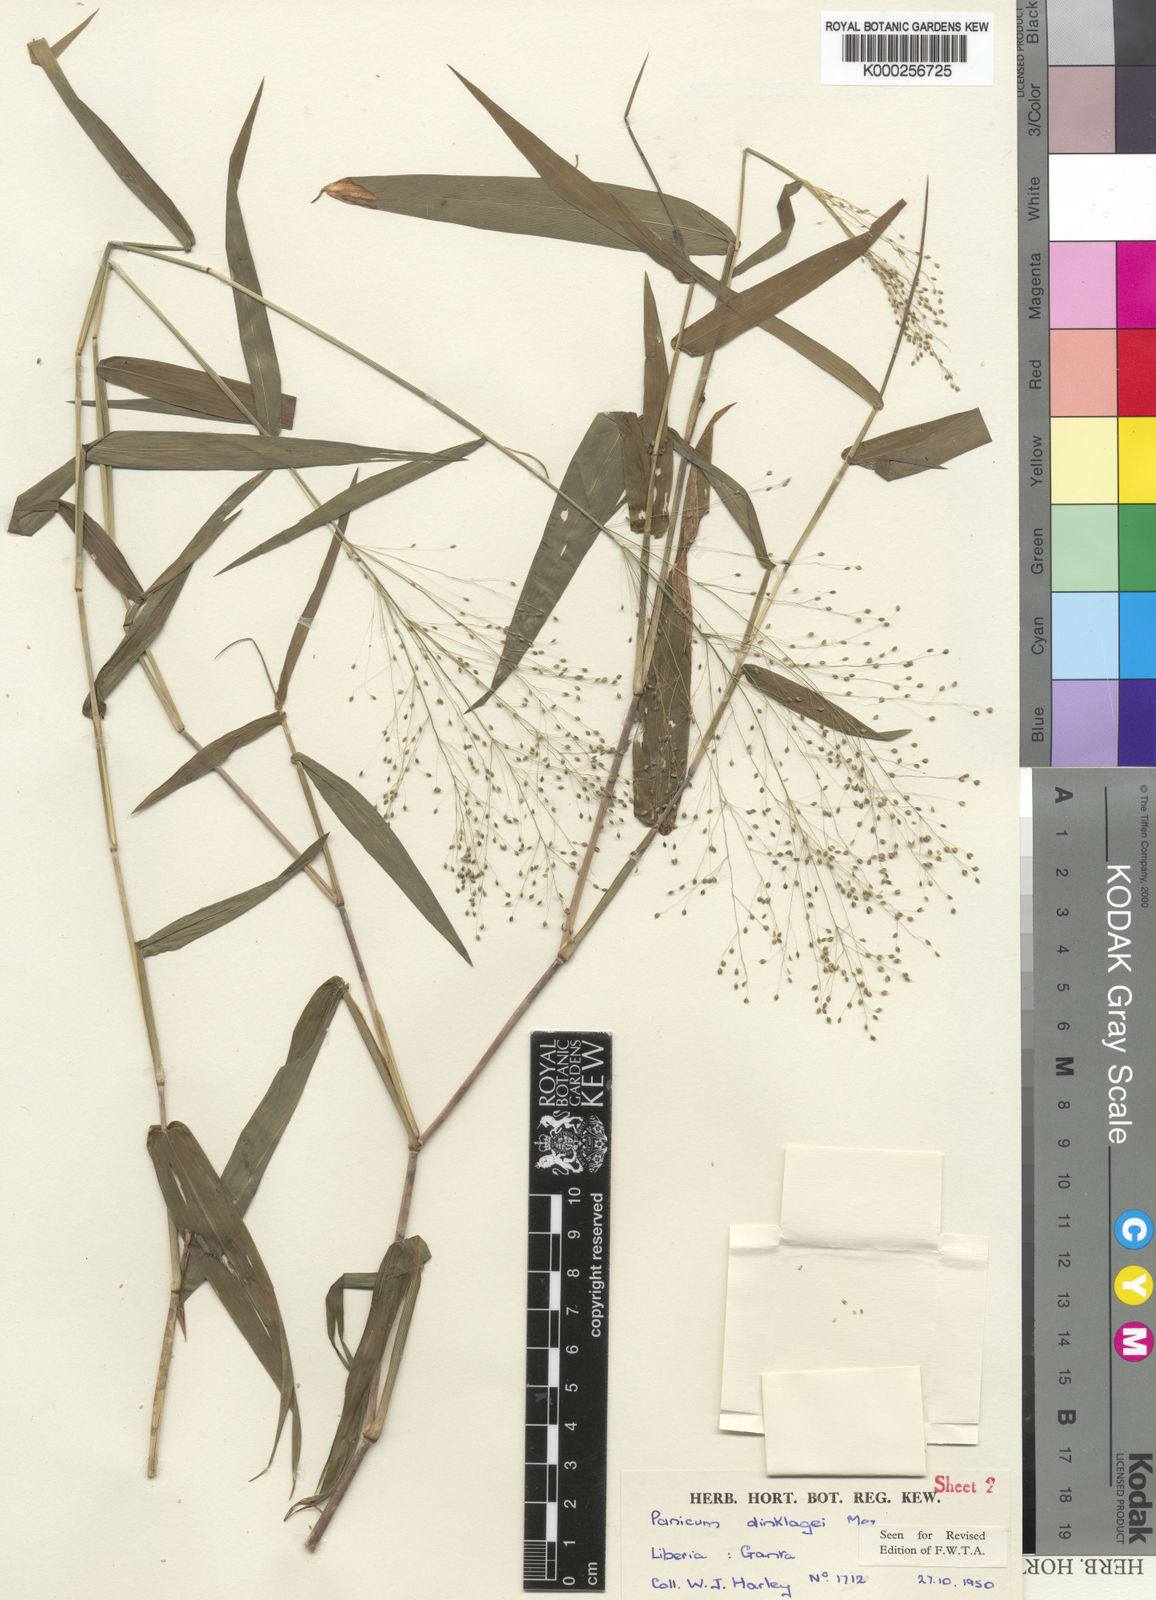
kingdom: Plantae
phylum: Tracheophyta
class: Liliopsida
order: Poales
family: Poaceae
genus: Trichanthecium
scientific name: Trichanthecium dinklagei
